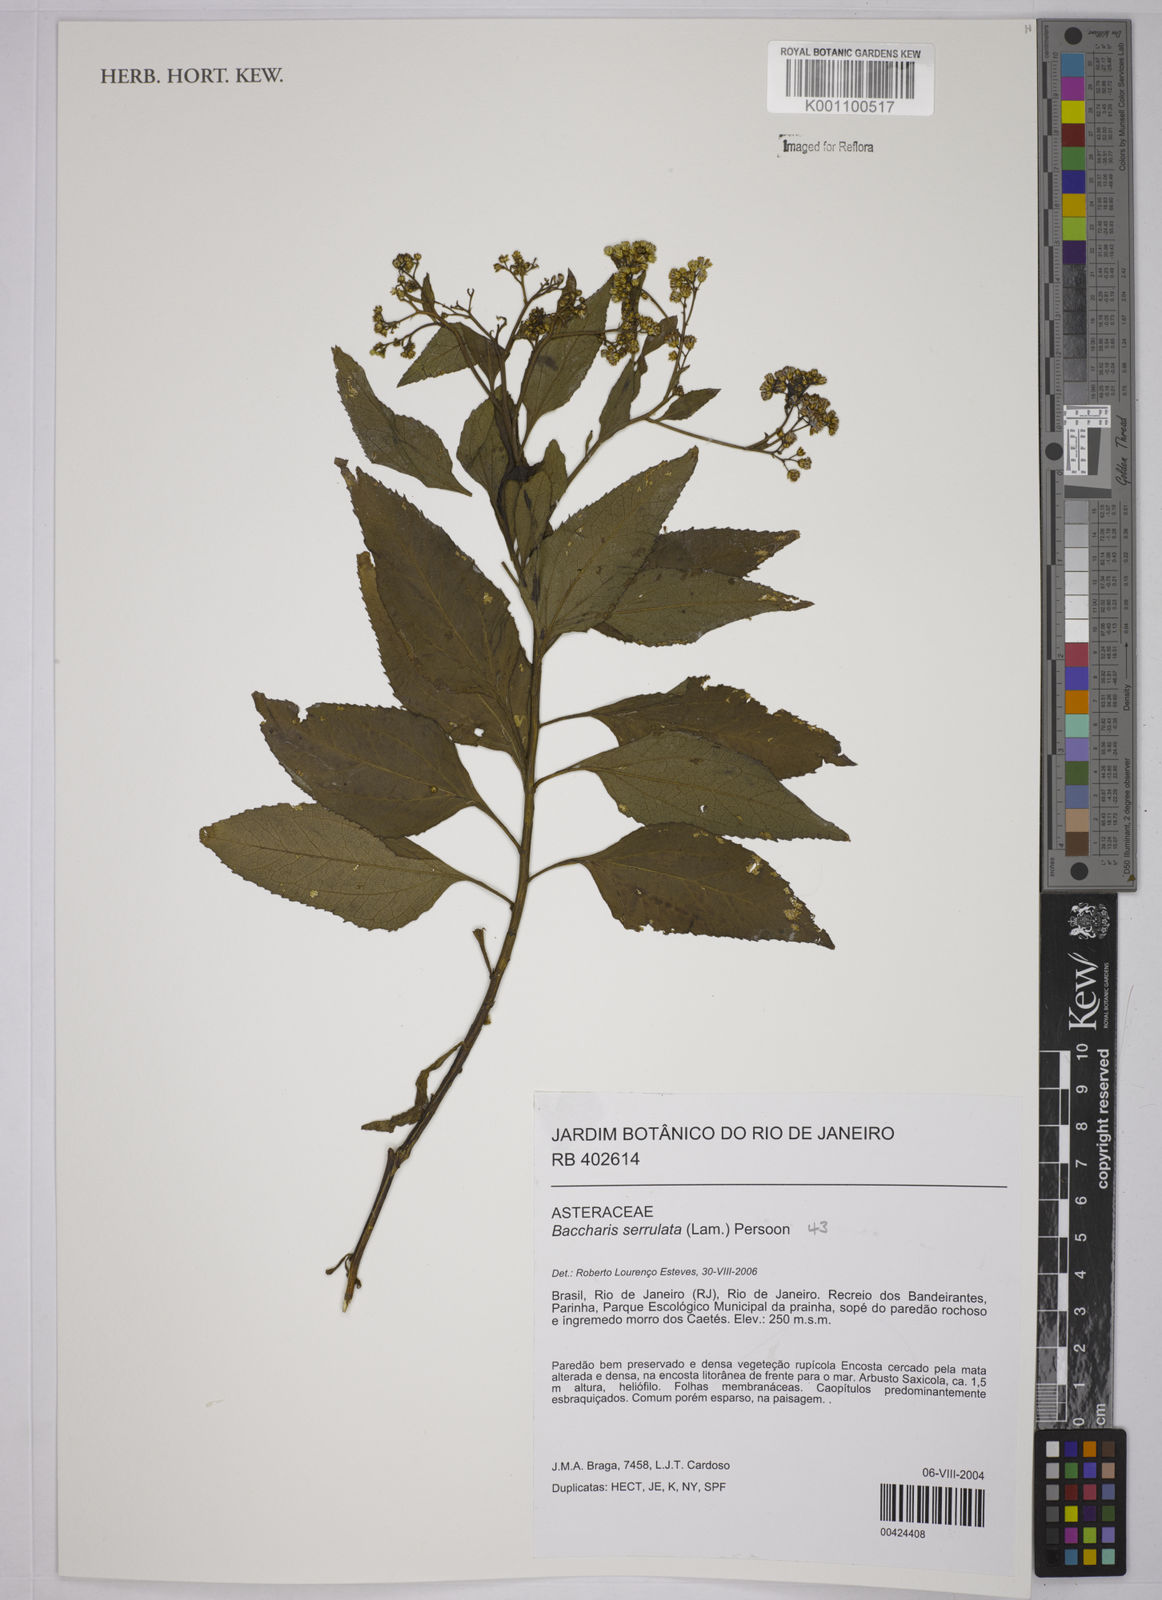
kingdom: Plantae
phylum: Tracheophyta
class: Magnoliopsida
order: Asterales
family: Asteraceae
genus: Baccharis
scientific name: Baccharis serrulata
